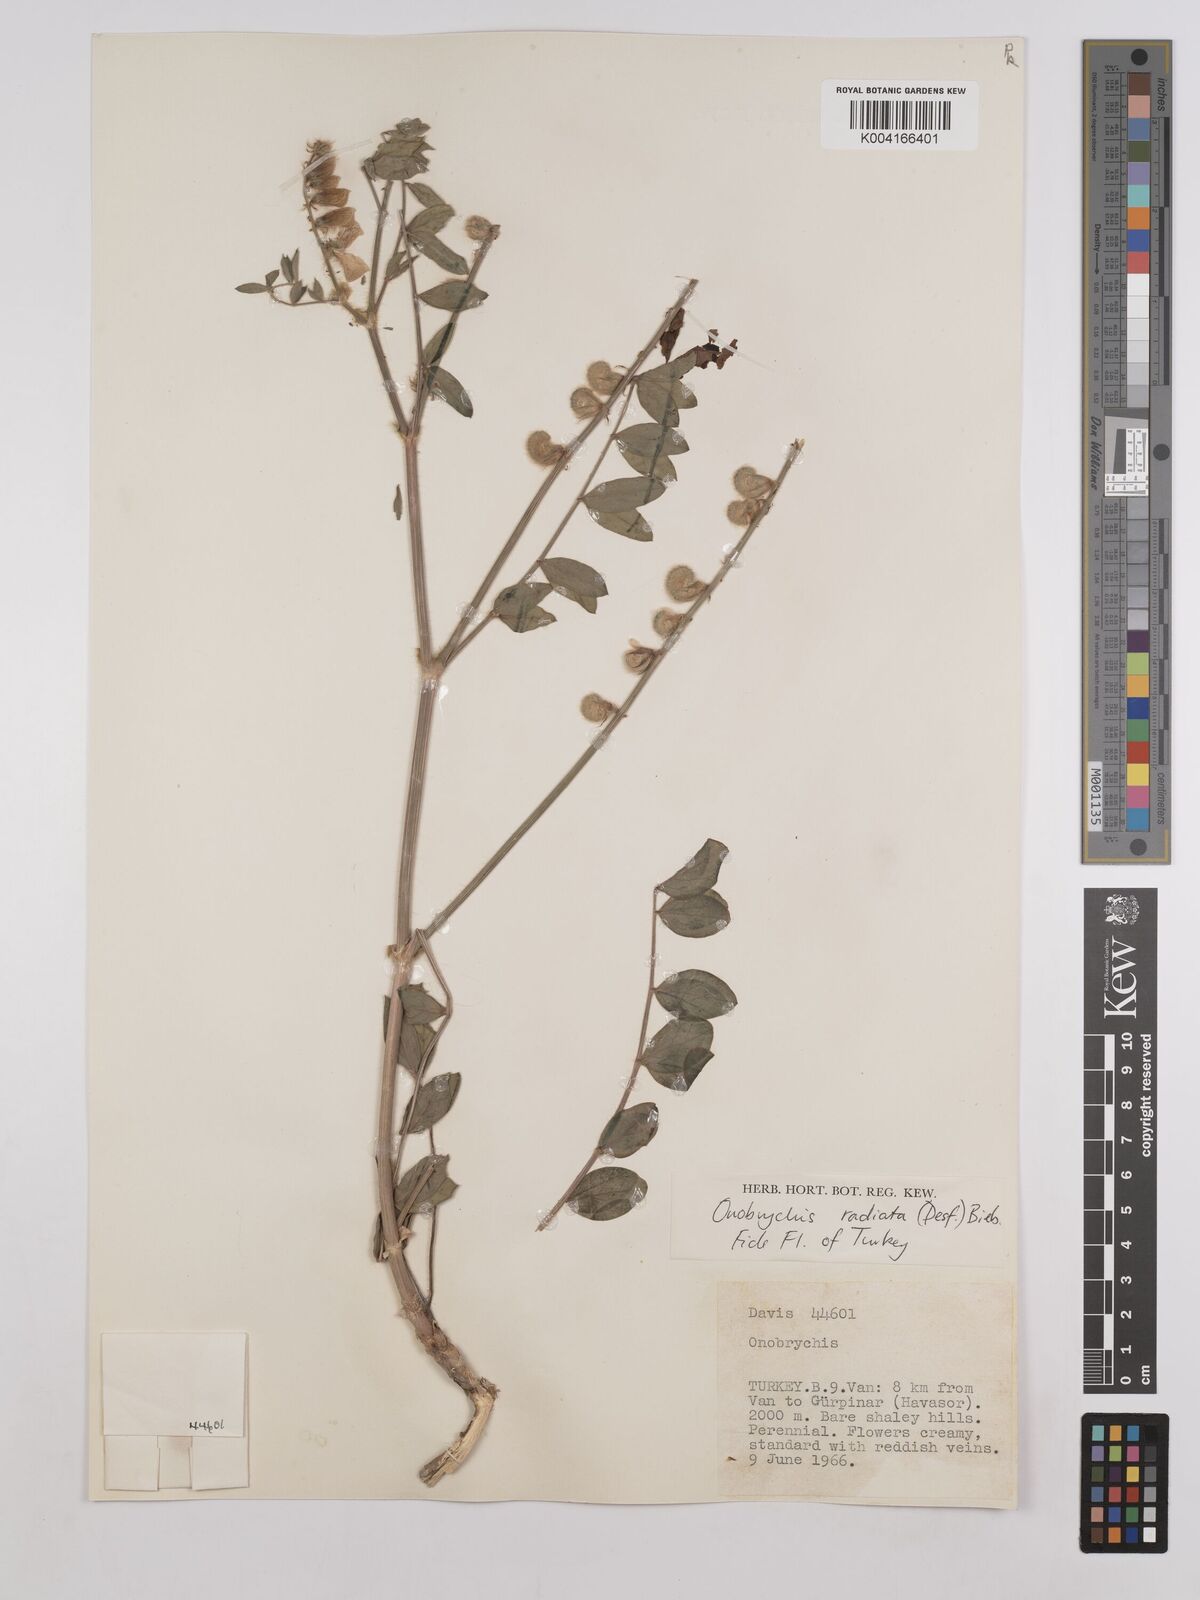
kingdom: Plantae
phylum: Tracheophyta
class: Magnoliopsida
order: Fabales
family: Fabaceae
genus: Onobrychis
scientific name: Onobrychis
